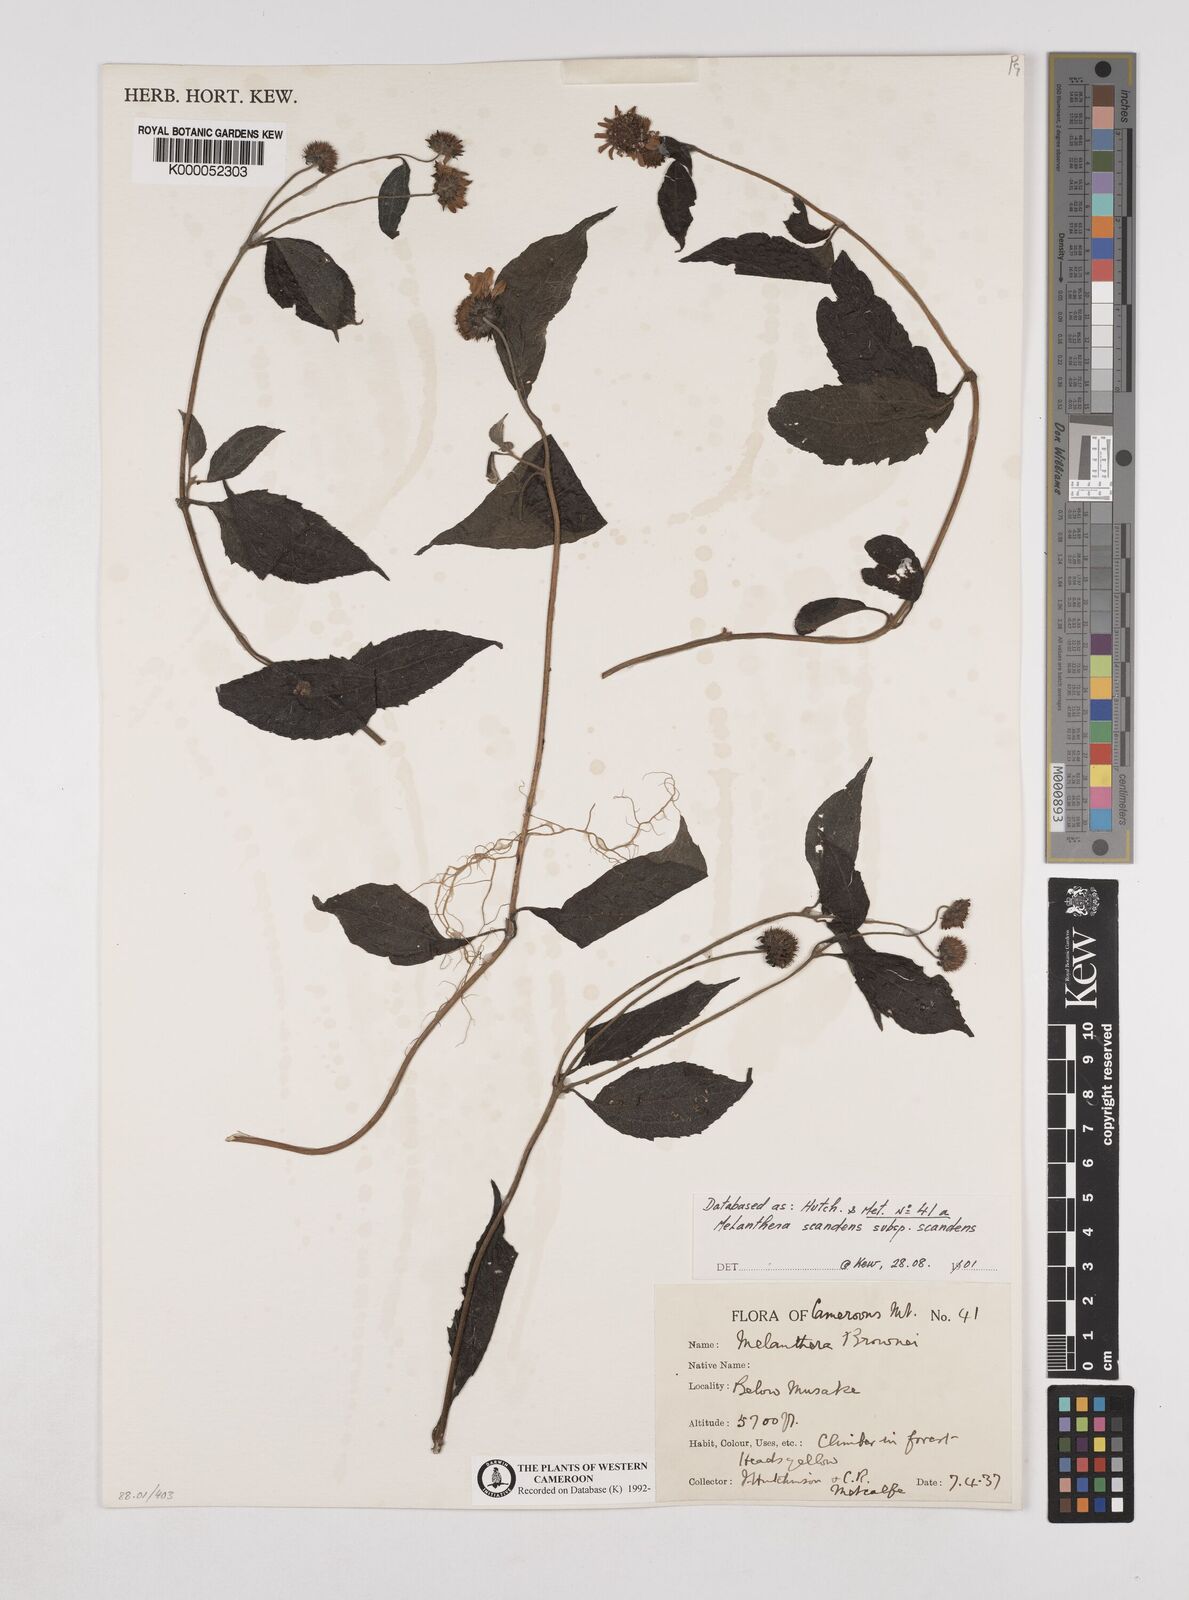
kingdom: Plantae
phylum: Tracheophyta
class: Magnoliopsida
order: Asterales
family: Asteraceae
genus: Melanthera
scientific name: Melanthera
